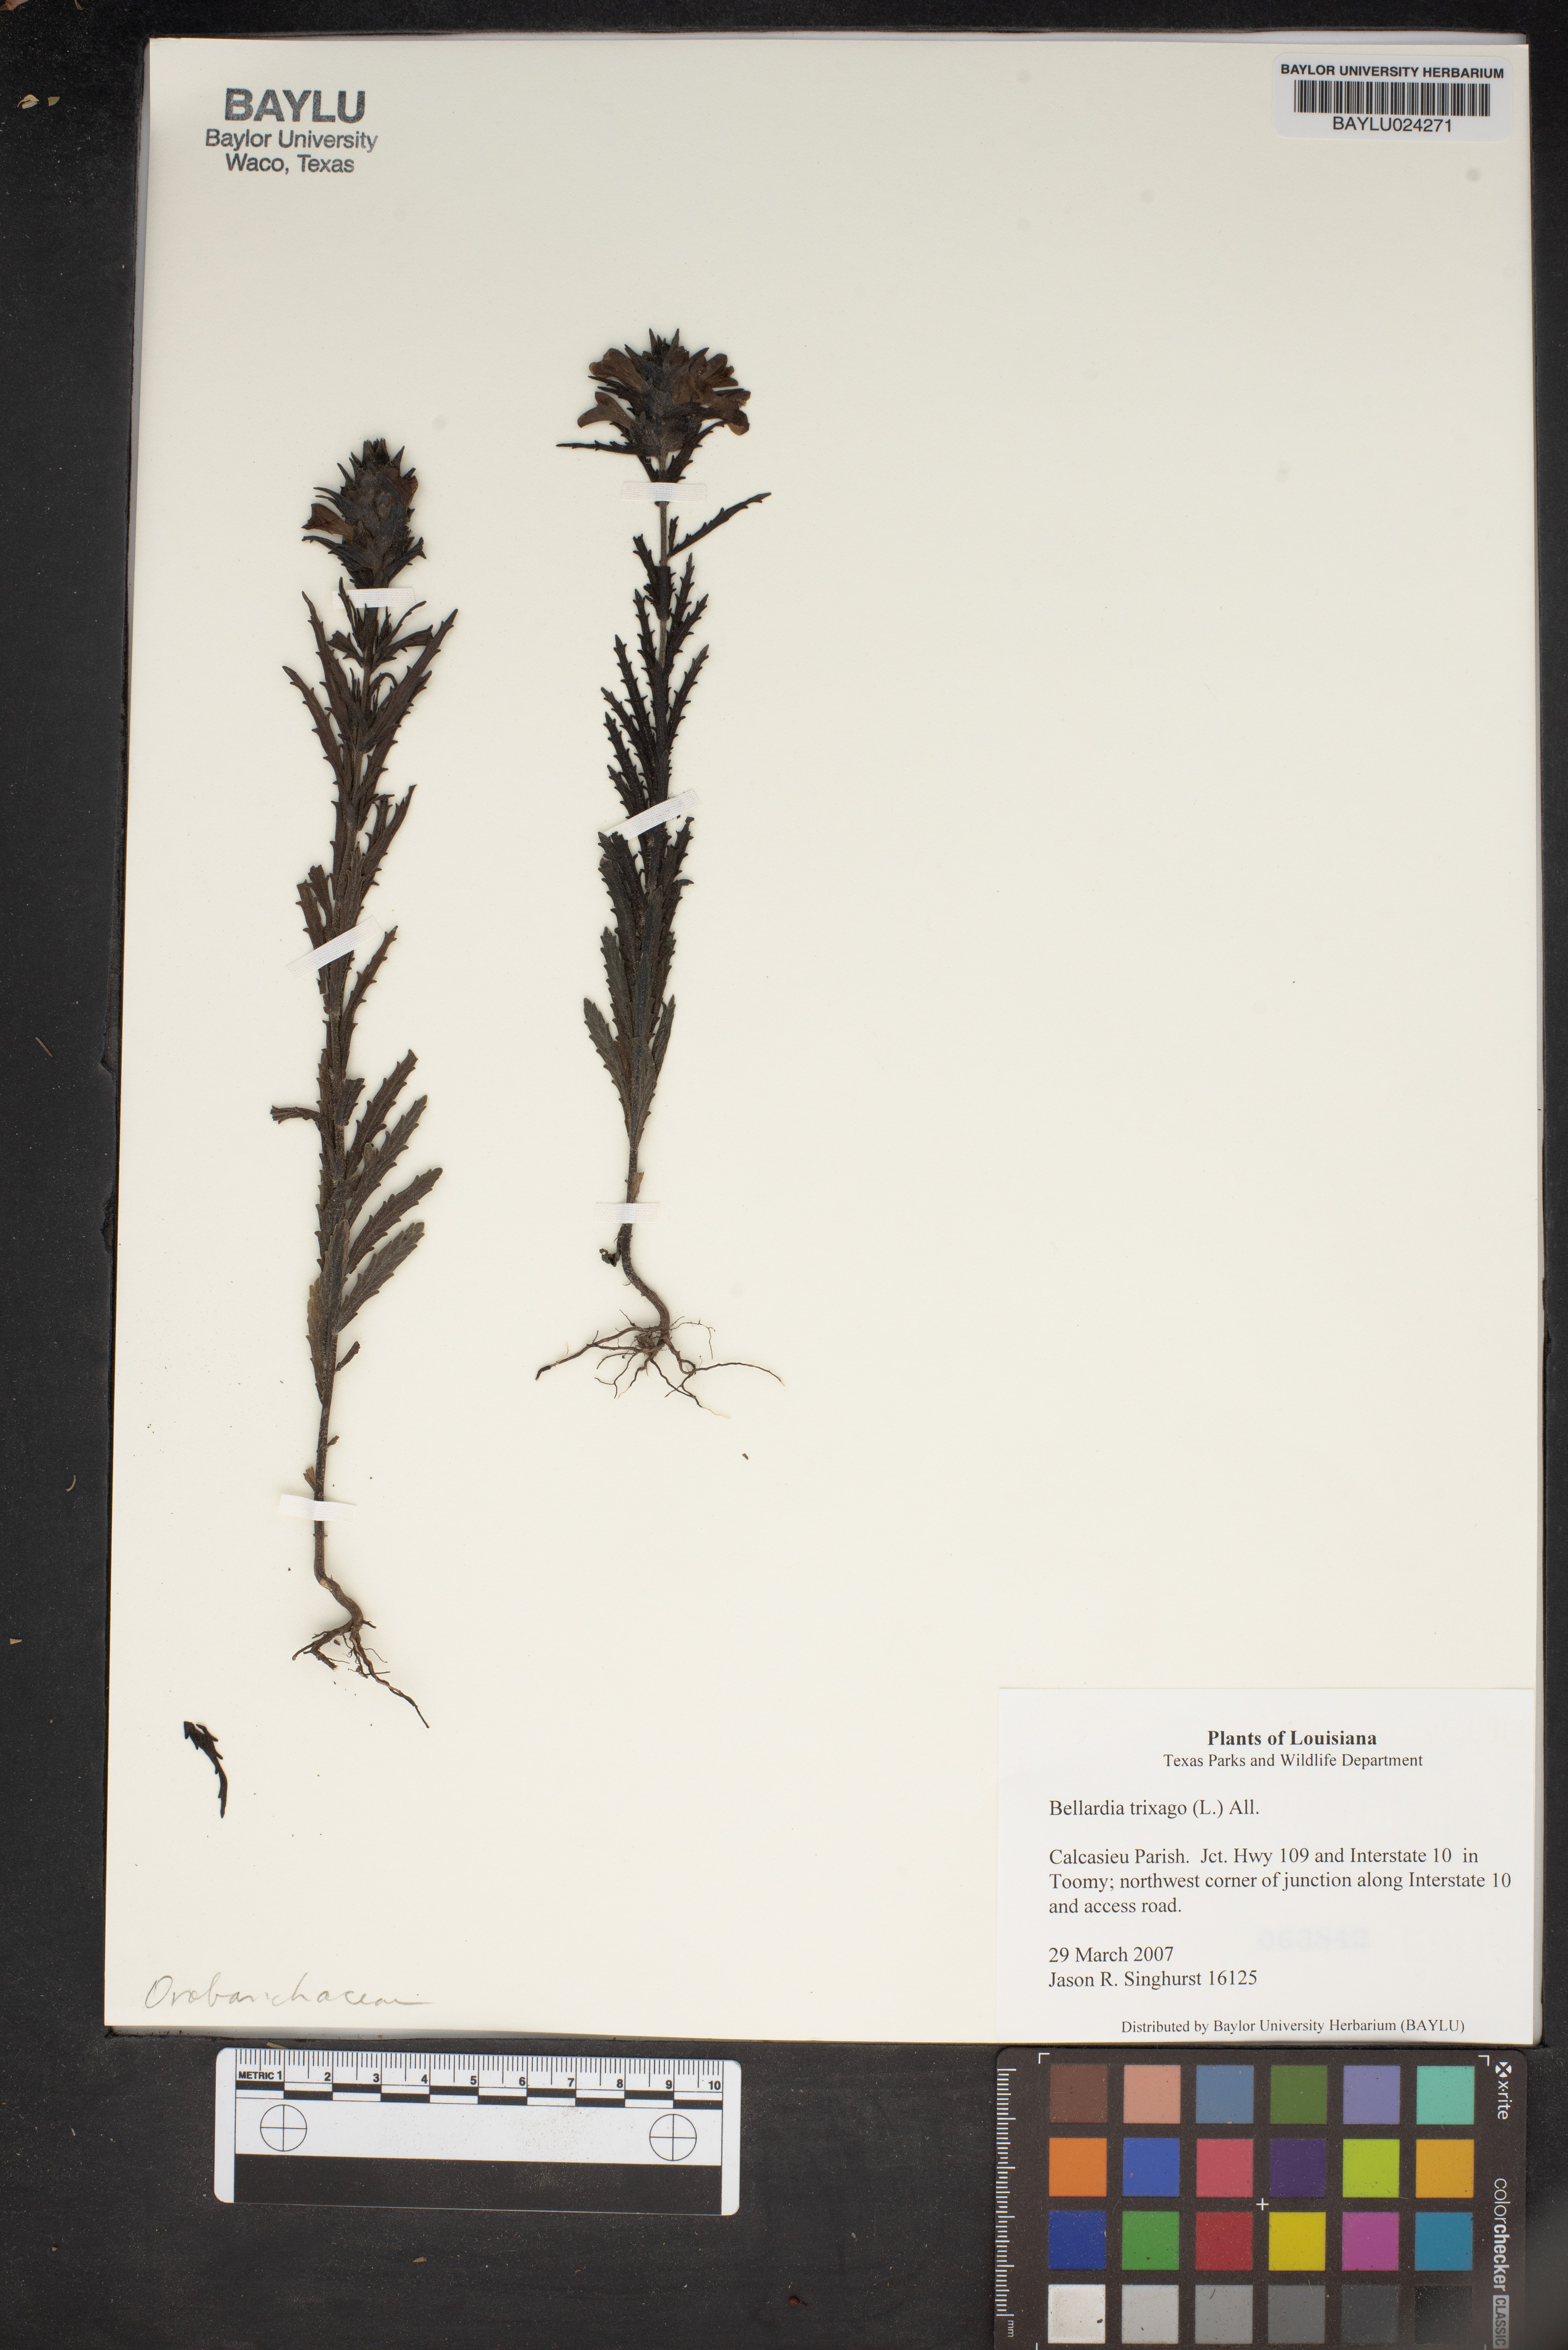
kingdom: Plantae
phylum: Tracheophyta
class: Magnoliopsida
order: Lamiales
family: Orobanchaceae
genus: Bellardia
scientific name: Bellardia trixago
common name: Mediterranean lineseed
